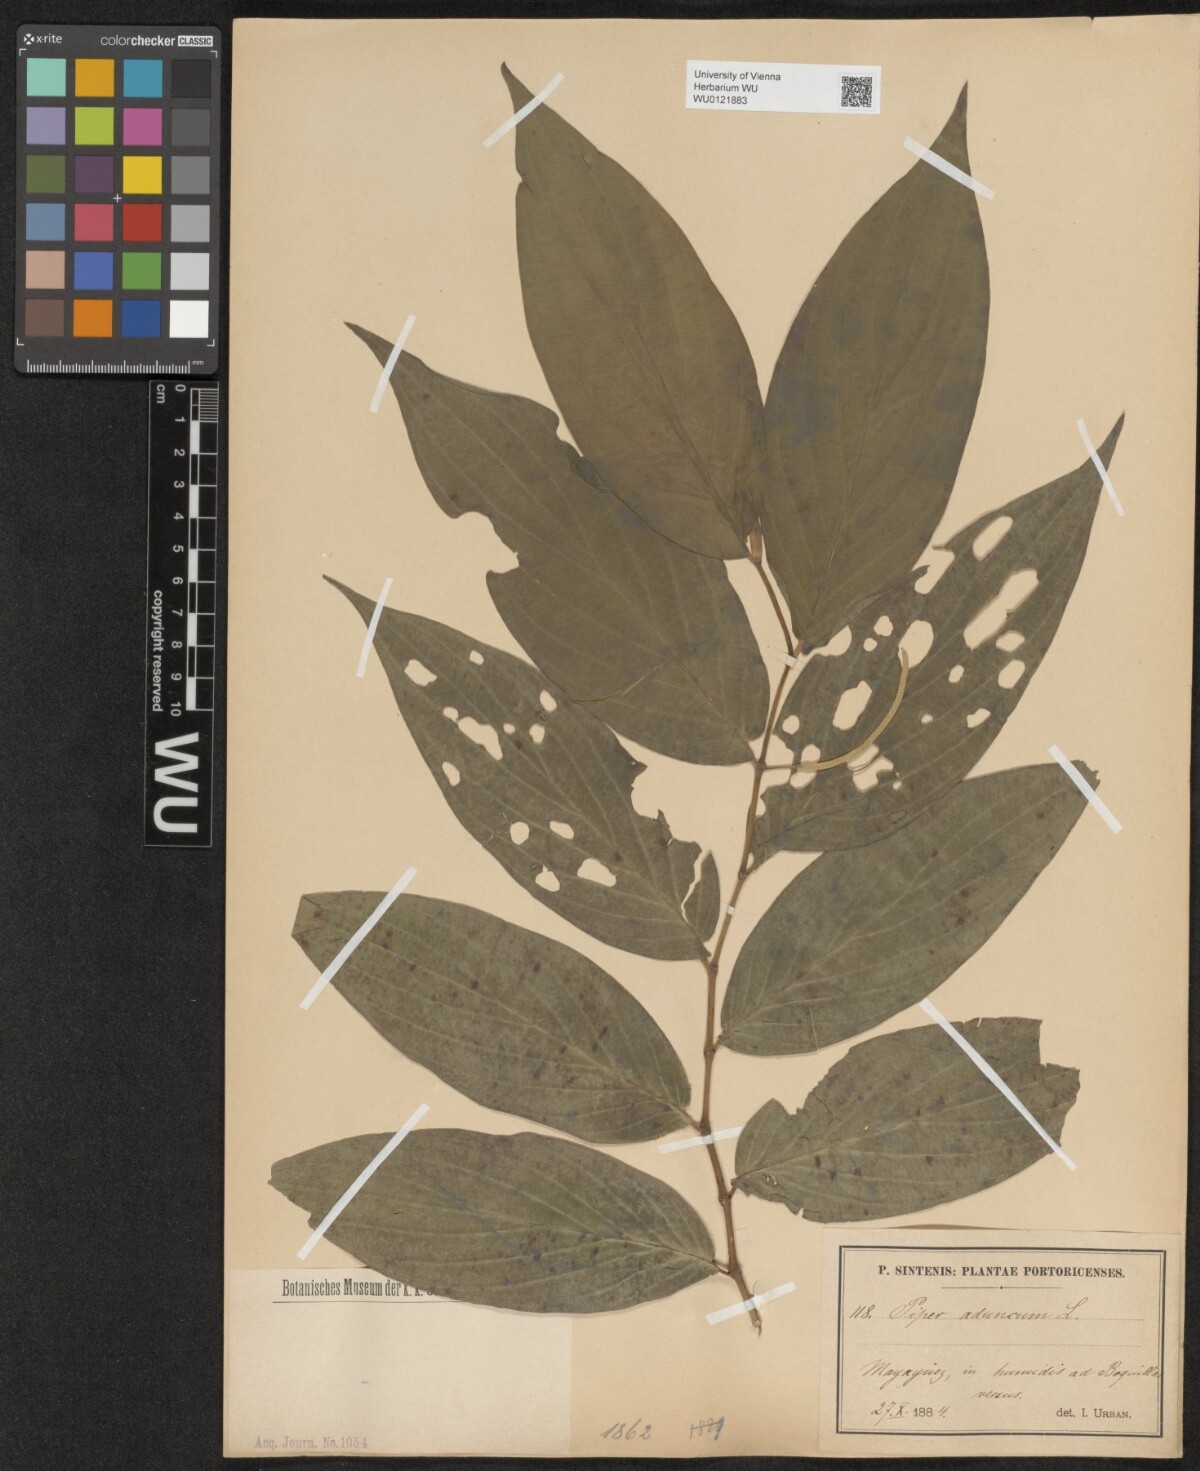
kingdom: Plantae
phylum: Tracheophyta
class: Magnoliopsida
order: Piperales
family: Piperaceae
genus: Piper
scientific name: Piper aduncum
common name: Spiked pepper
